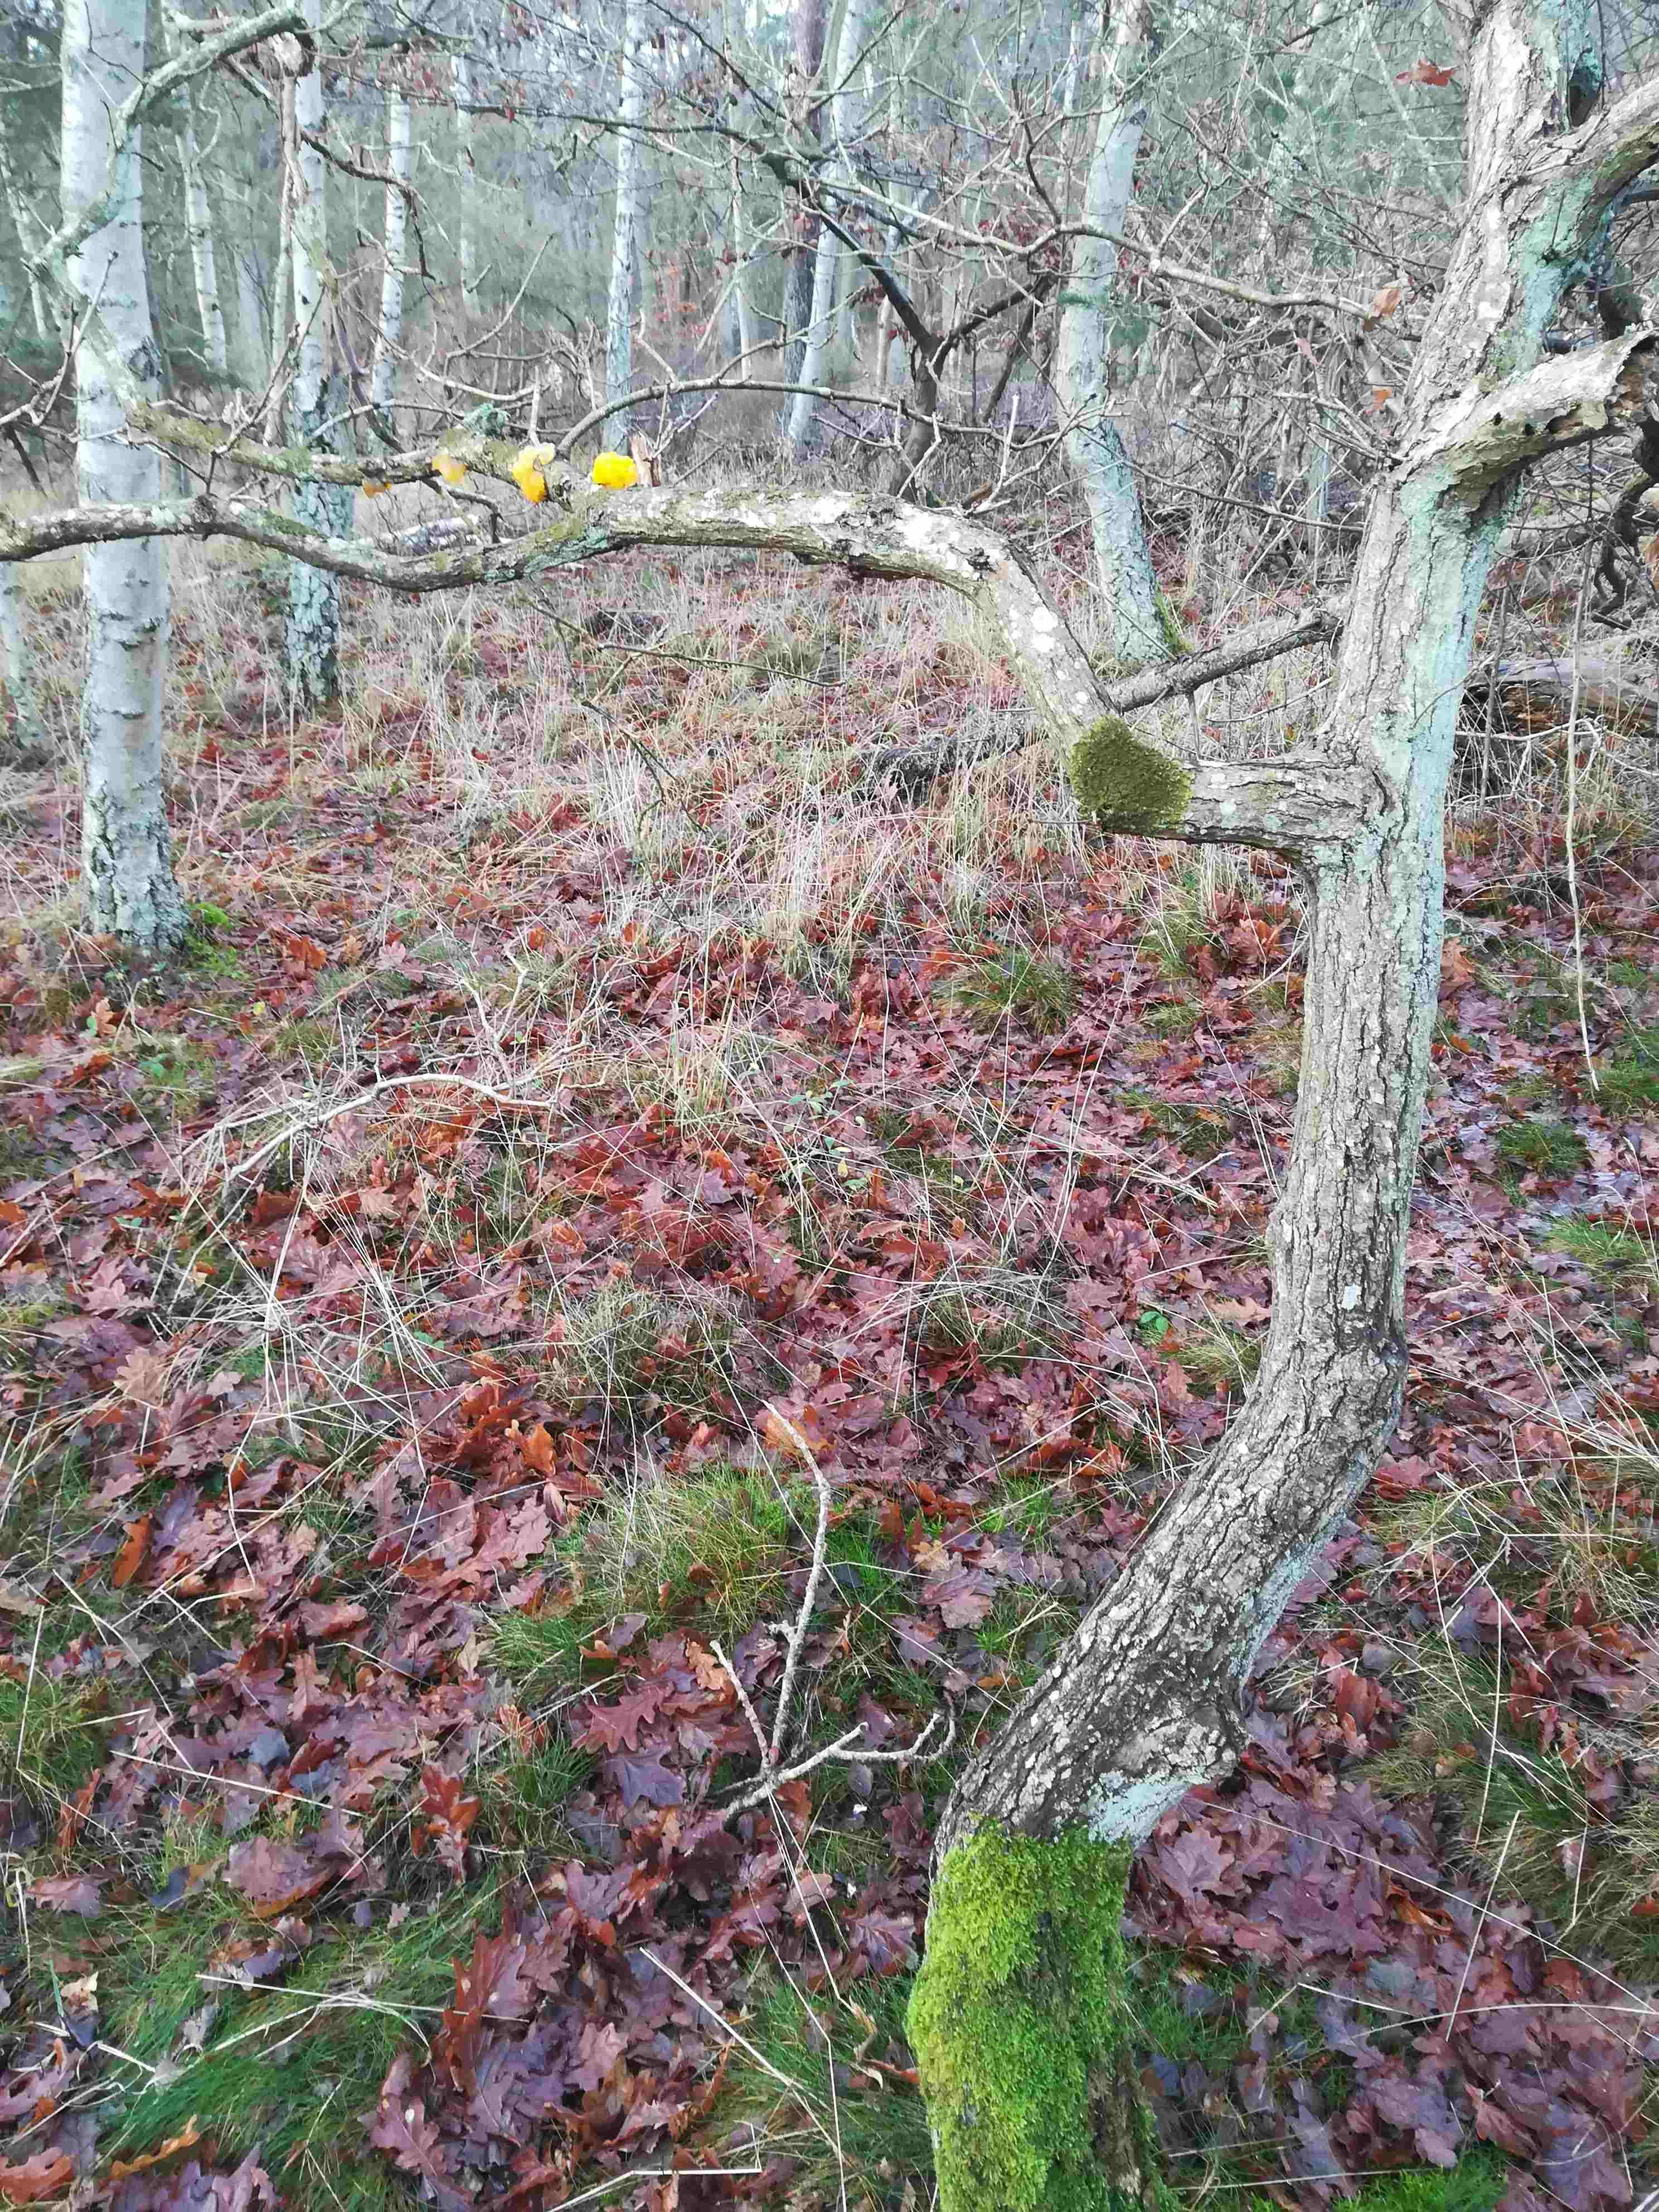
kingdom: Fungi
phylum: Basidiomycota
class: Tremellomycetes
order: Tremellales
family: Tremellaceae
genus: Tremella
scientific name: Tremella mesenterica
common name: gul bævresvamp
